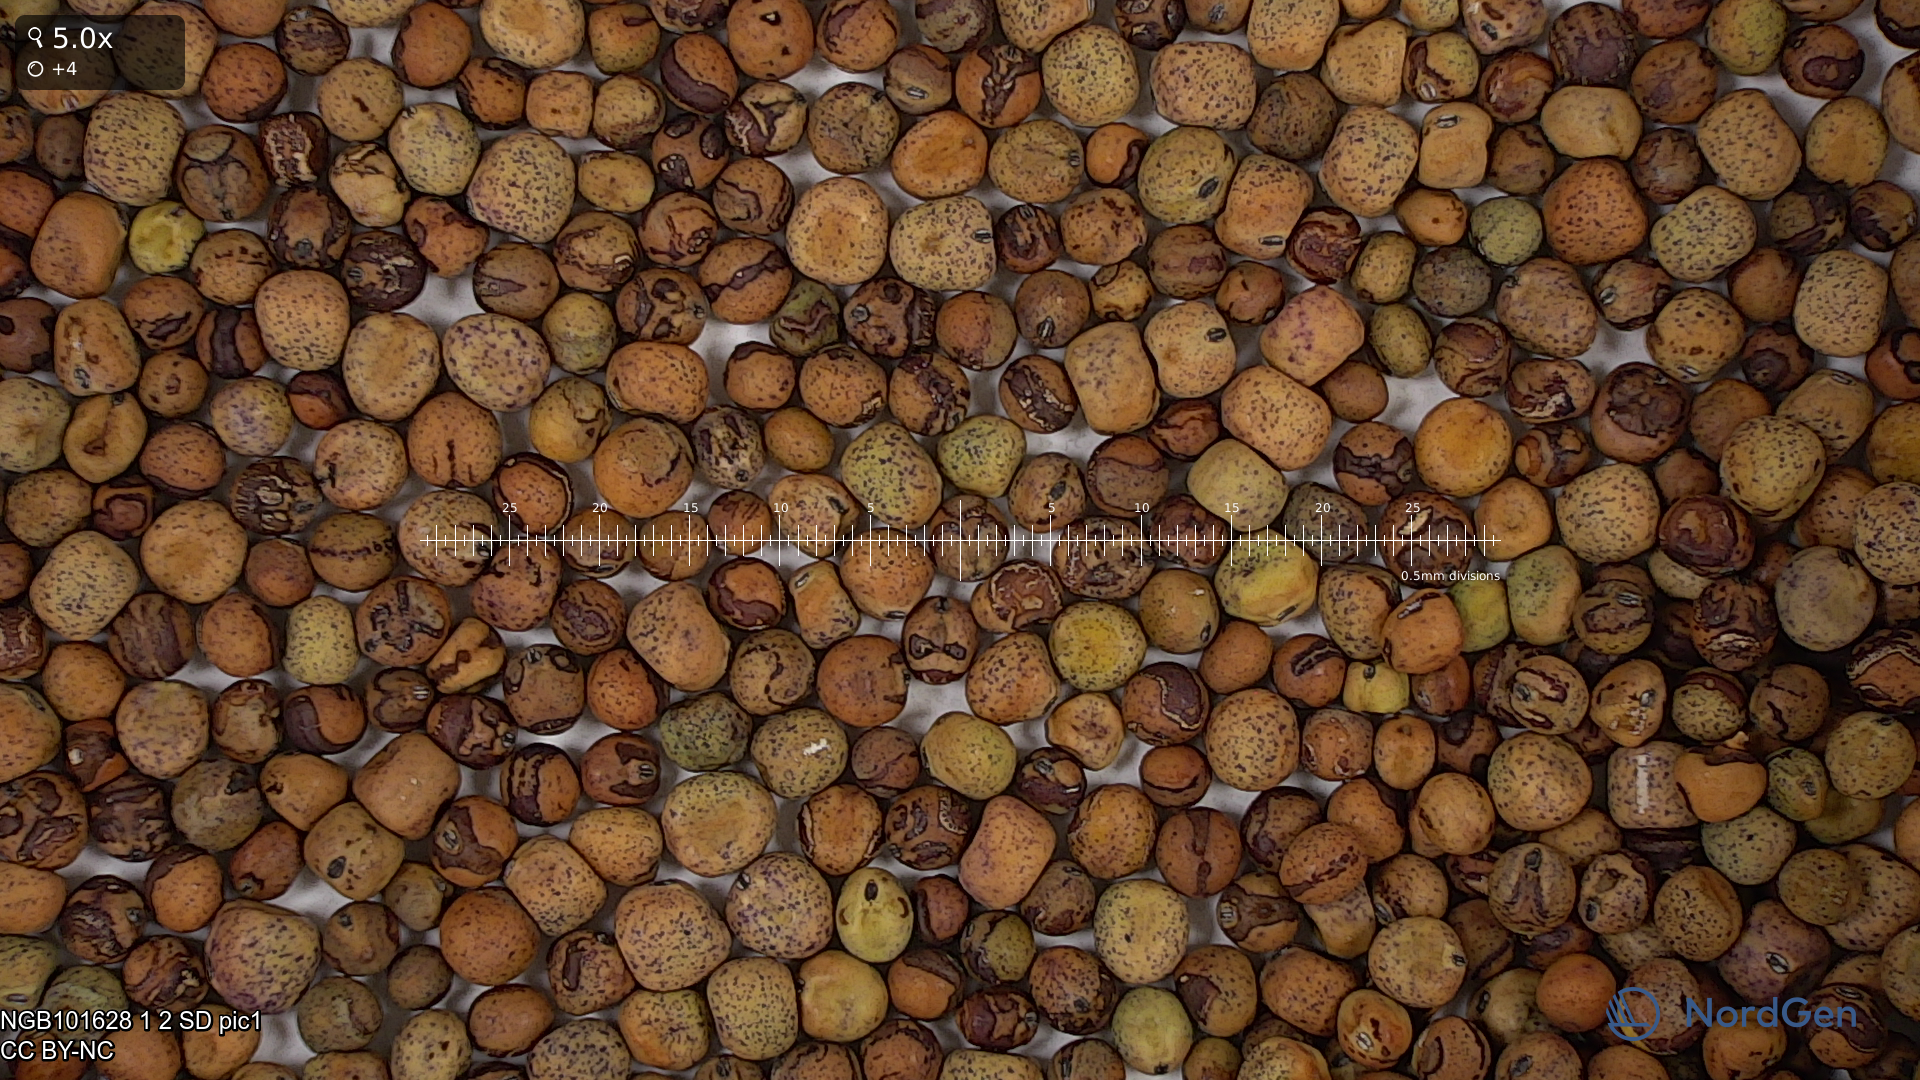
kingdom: Plantae
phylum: Tracheophyta
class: Magnoliopsida
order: Fabales
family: Fabaceae
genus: Lathyrus
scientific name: Lathyrus oleraceus
